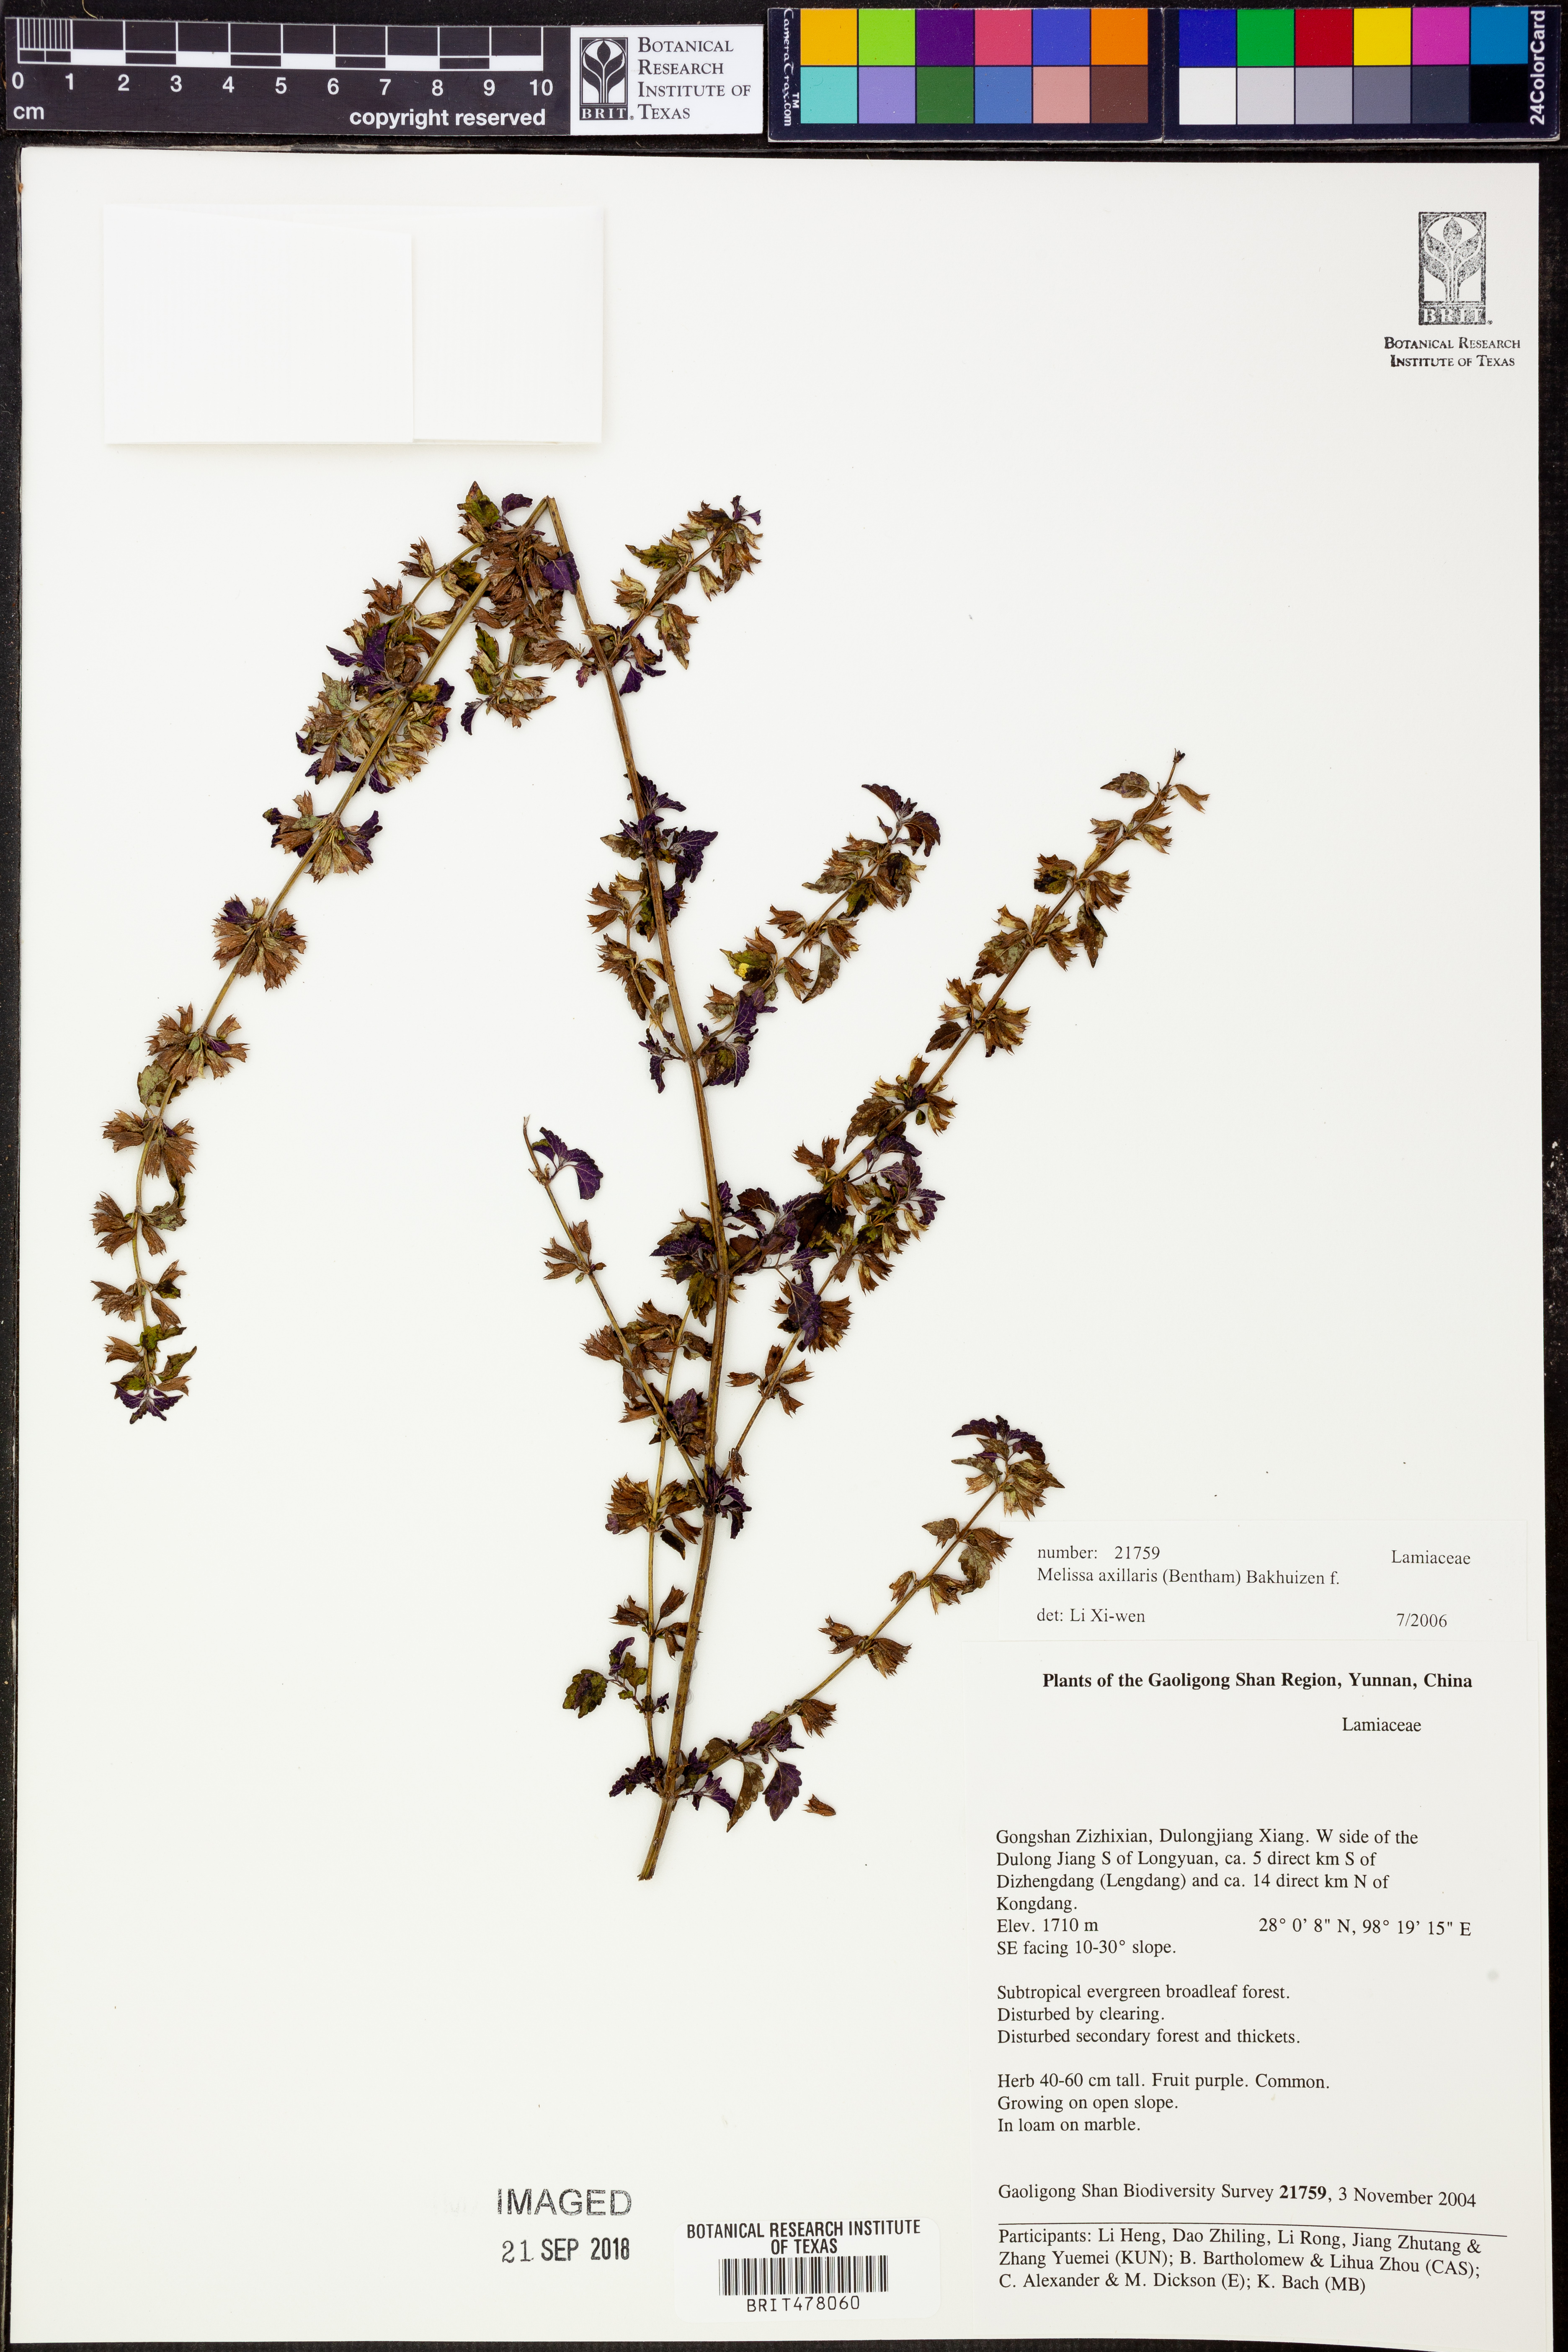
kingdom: Plantae
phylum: Tracheophyta
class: Magnoliopsida
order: Lamiales
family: Lamiaceae
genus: Melissa
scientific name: Melissa axillaris
